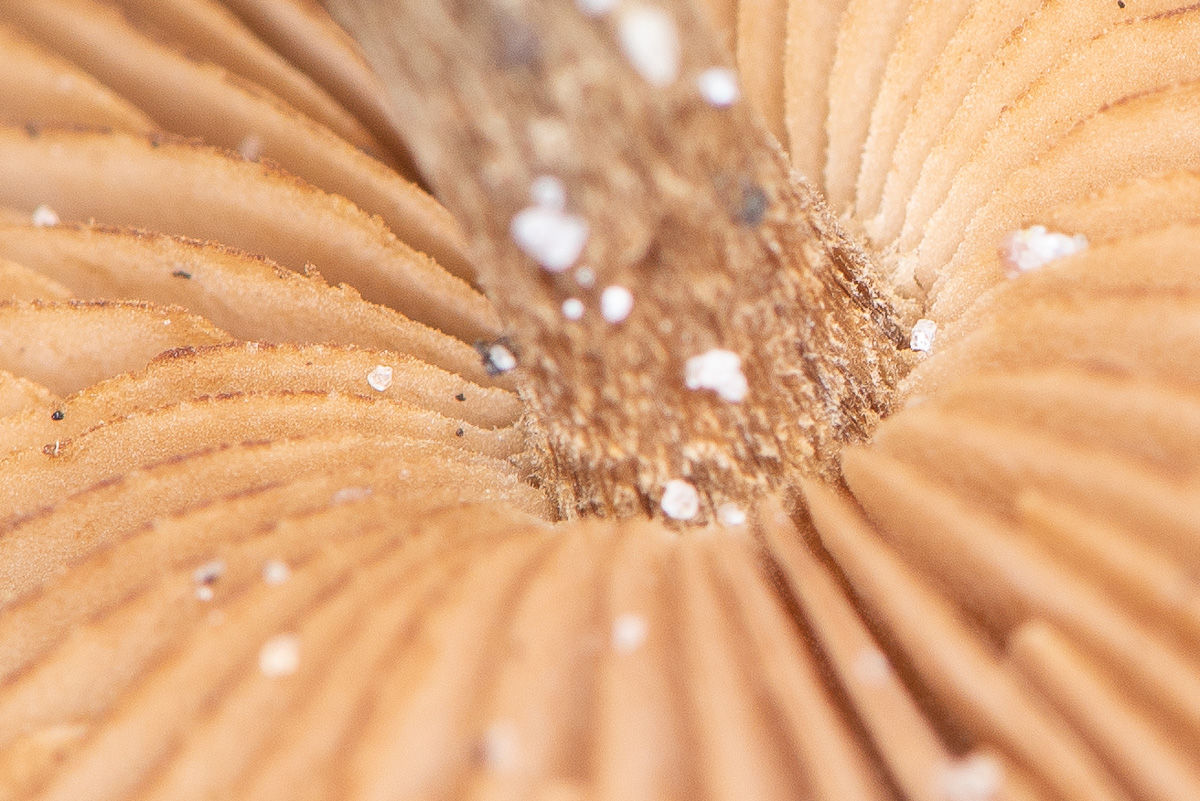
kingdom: Fungi
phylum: Basidiomycota
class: Agaricomycetes
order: Agaricales
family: Inocybaceae
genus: Inocybe
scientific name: Inocybe
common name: trævlhat
